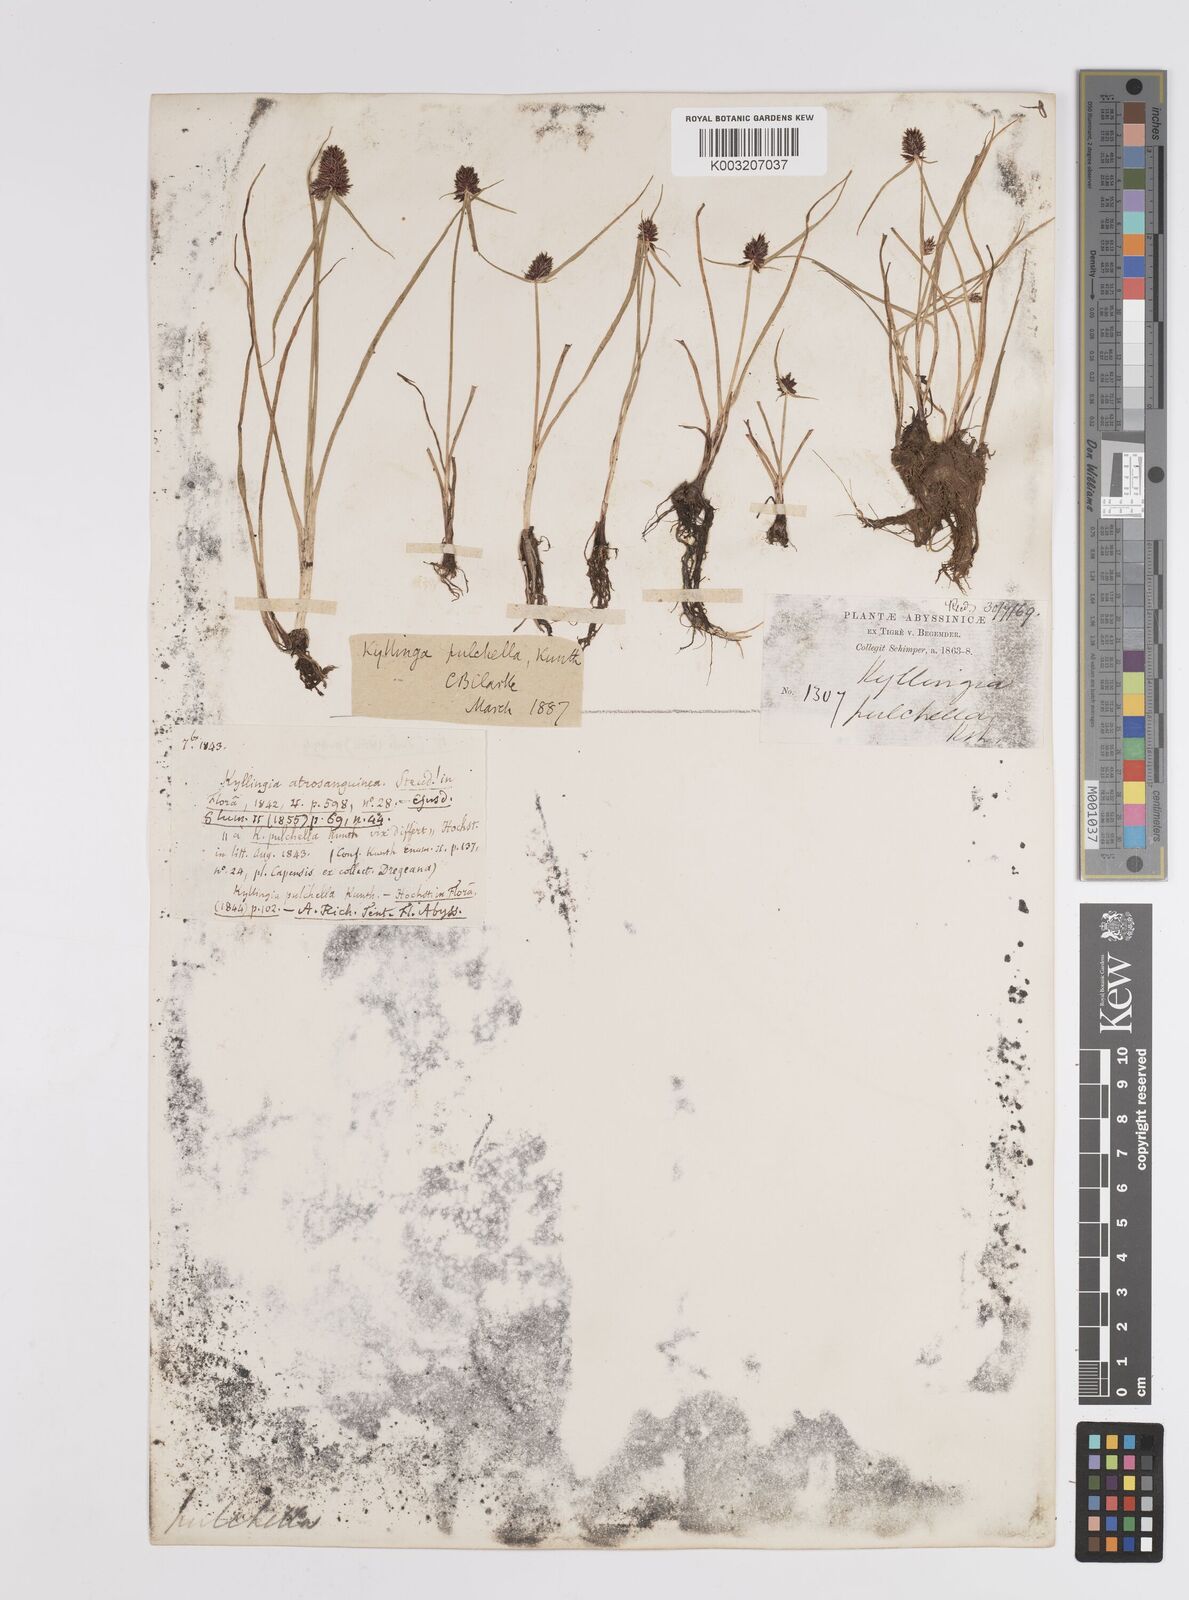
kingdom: Plantae
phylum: Tracheophyta
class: Liliopsida
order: Poales
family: Cyperaceae
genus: Cyperus
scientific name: Cyperus
